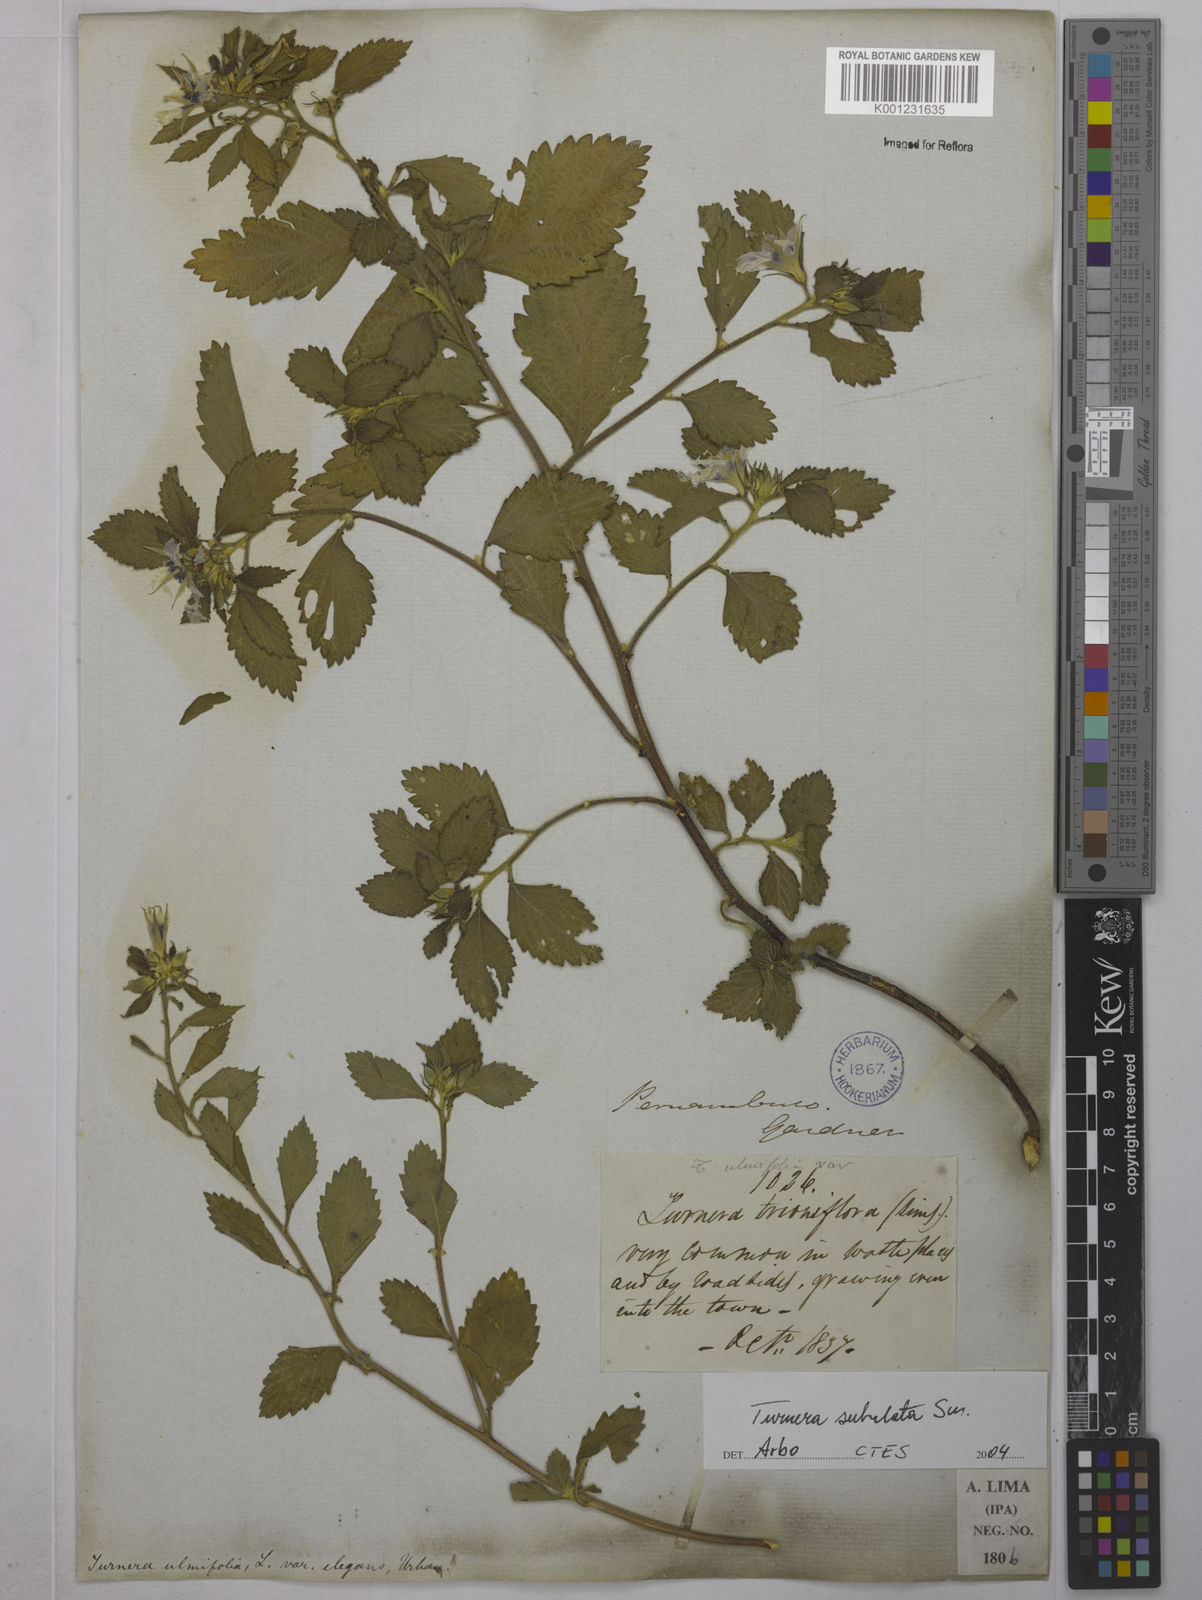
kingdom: Plantae
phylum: Tracheophyta
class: Magnoliopsida
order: Malpighiales
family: Turneraceae
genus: Turnera
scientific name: Turnera subulata
